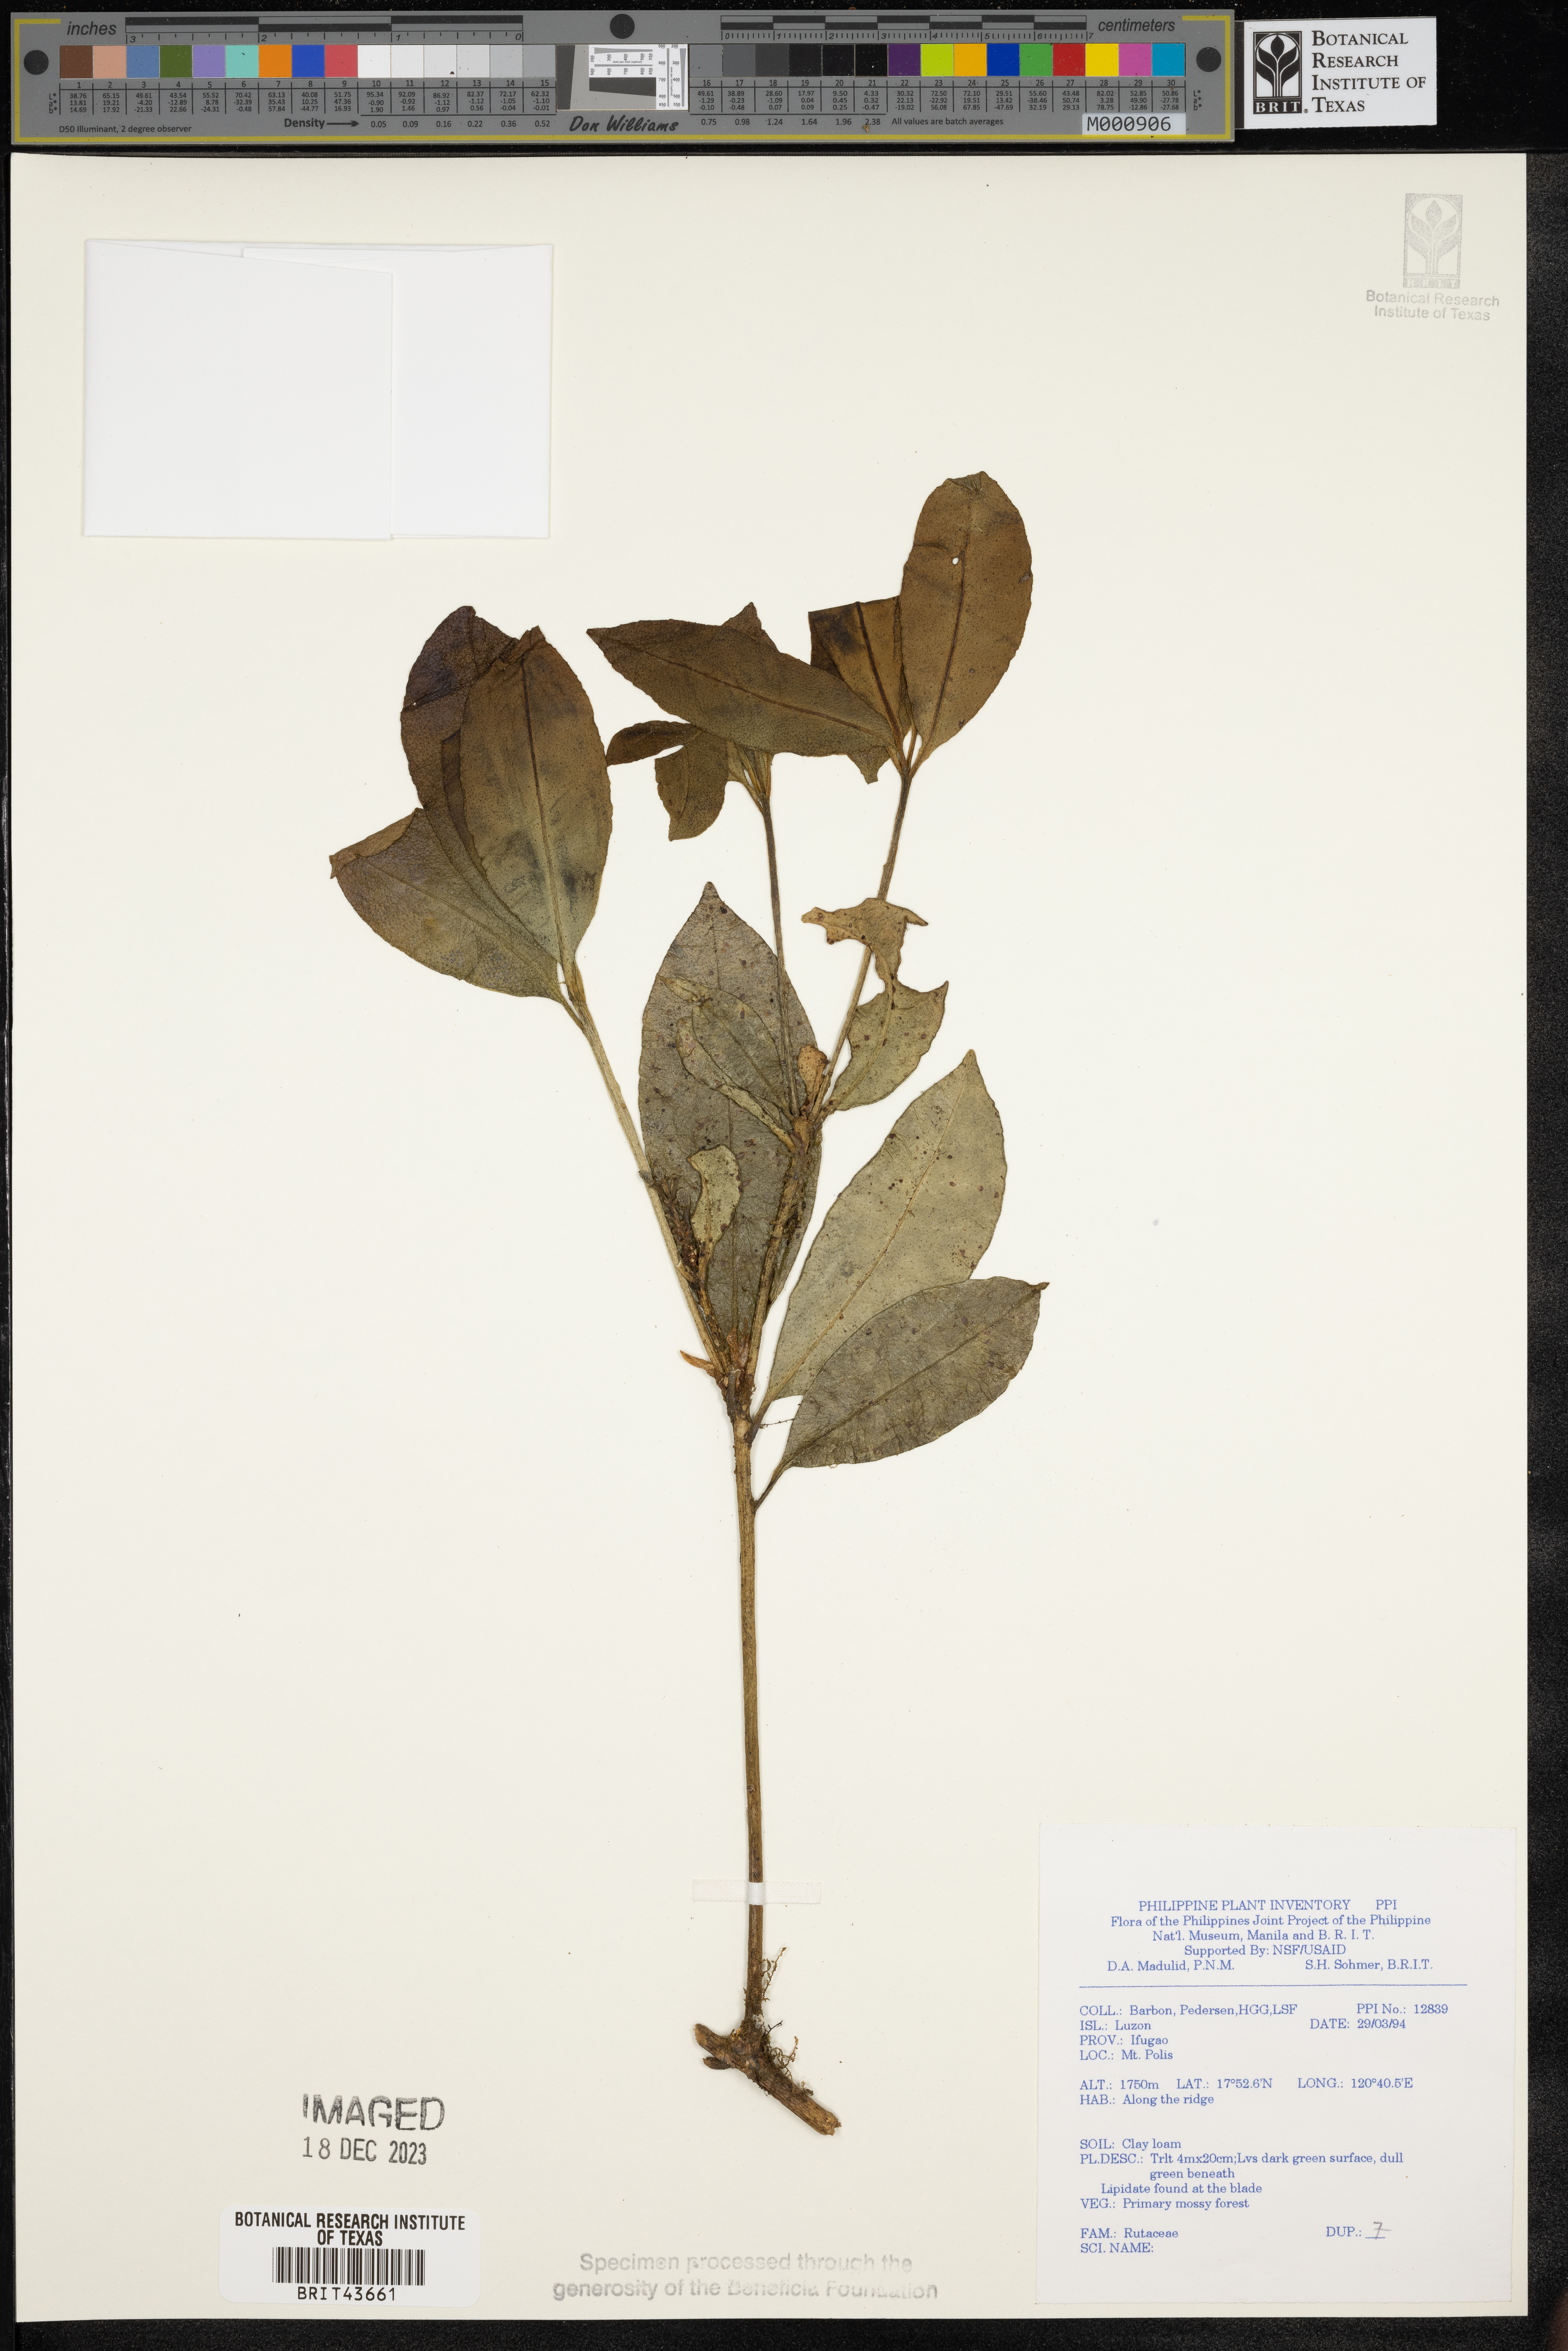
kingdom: Plantae
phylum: Tracheophyta
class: Magnoliopsida
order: Sapindales
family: Rutaceae
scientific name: Rutaceae
